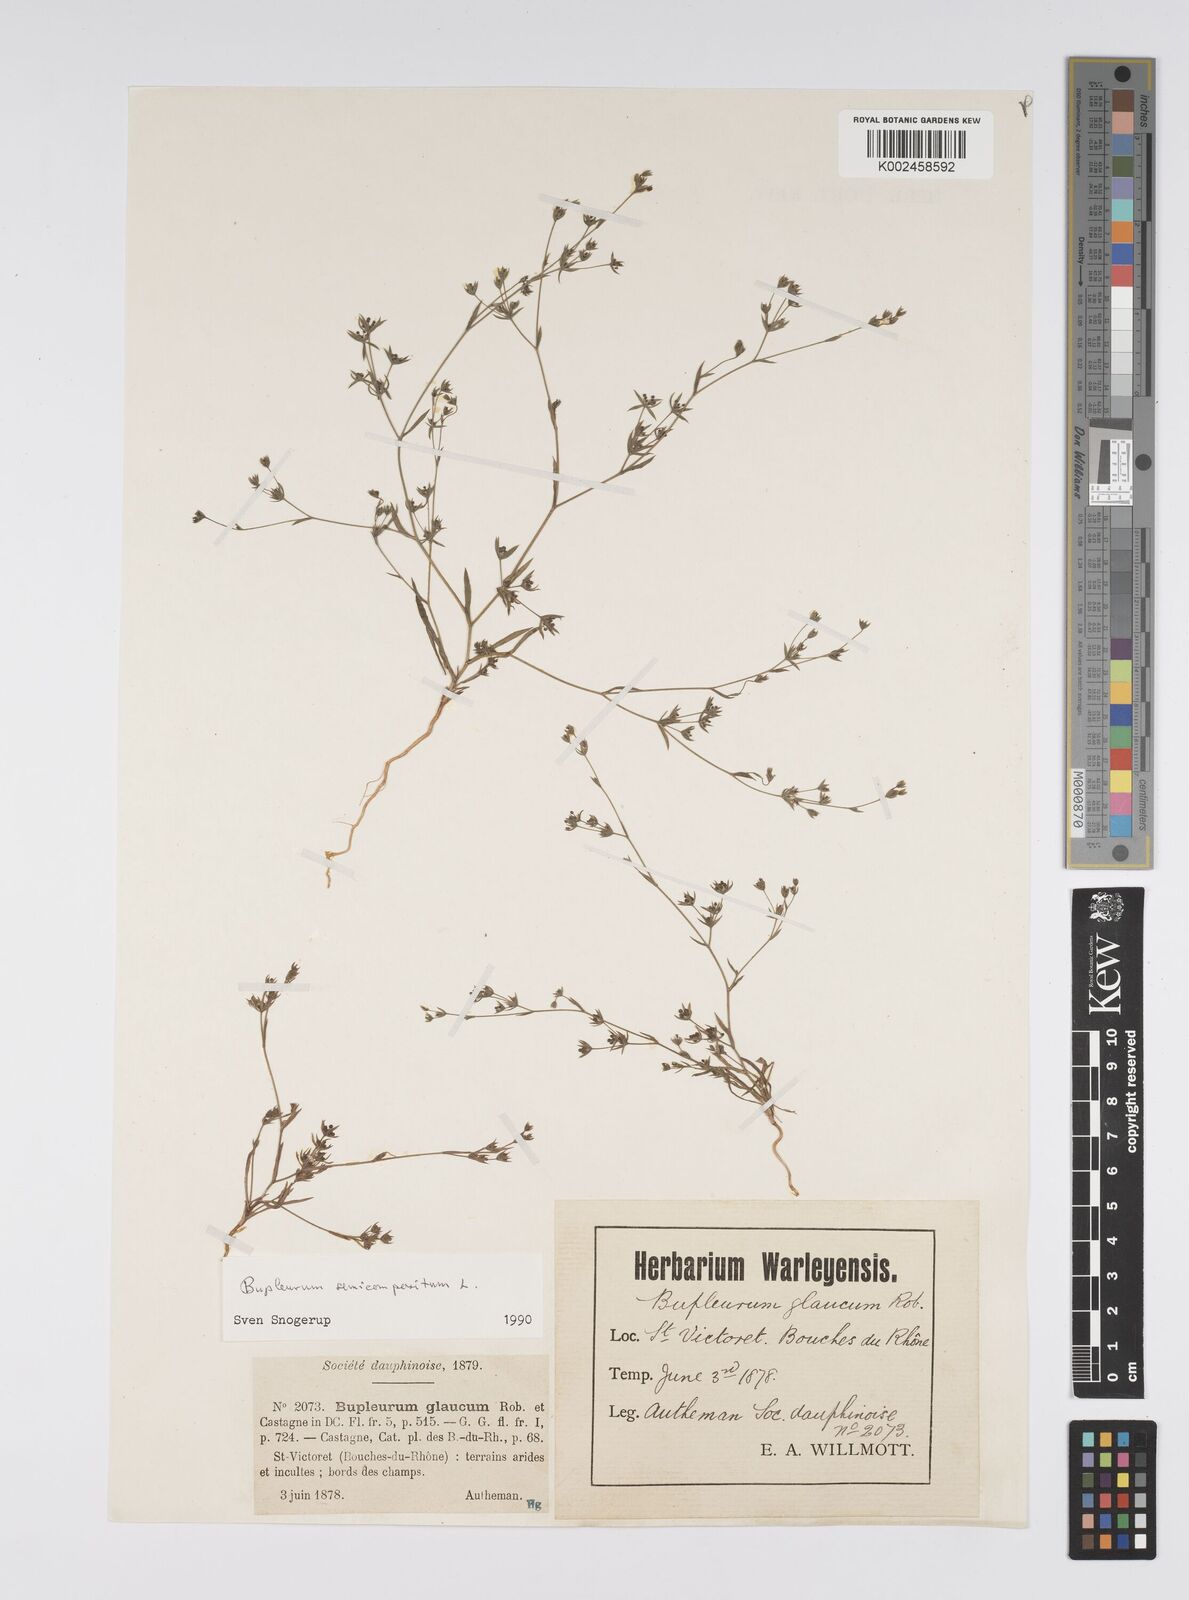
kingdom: Plantae
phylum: Tracheophyta
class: Magnoliopsida
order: Apiales
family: Apiaceae
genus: Bupleurum
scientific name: Bupleurum semicompositum
